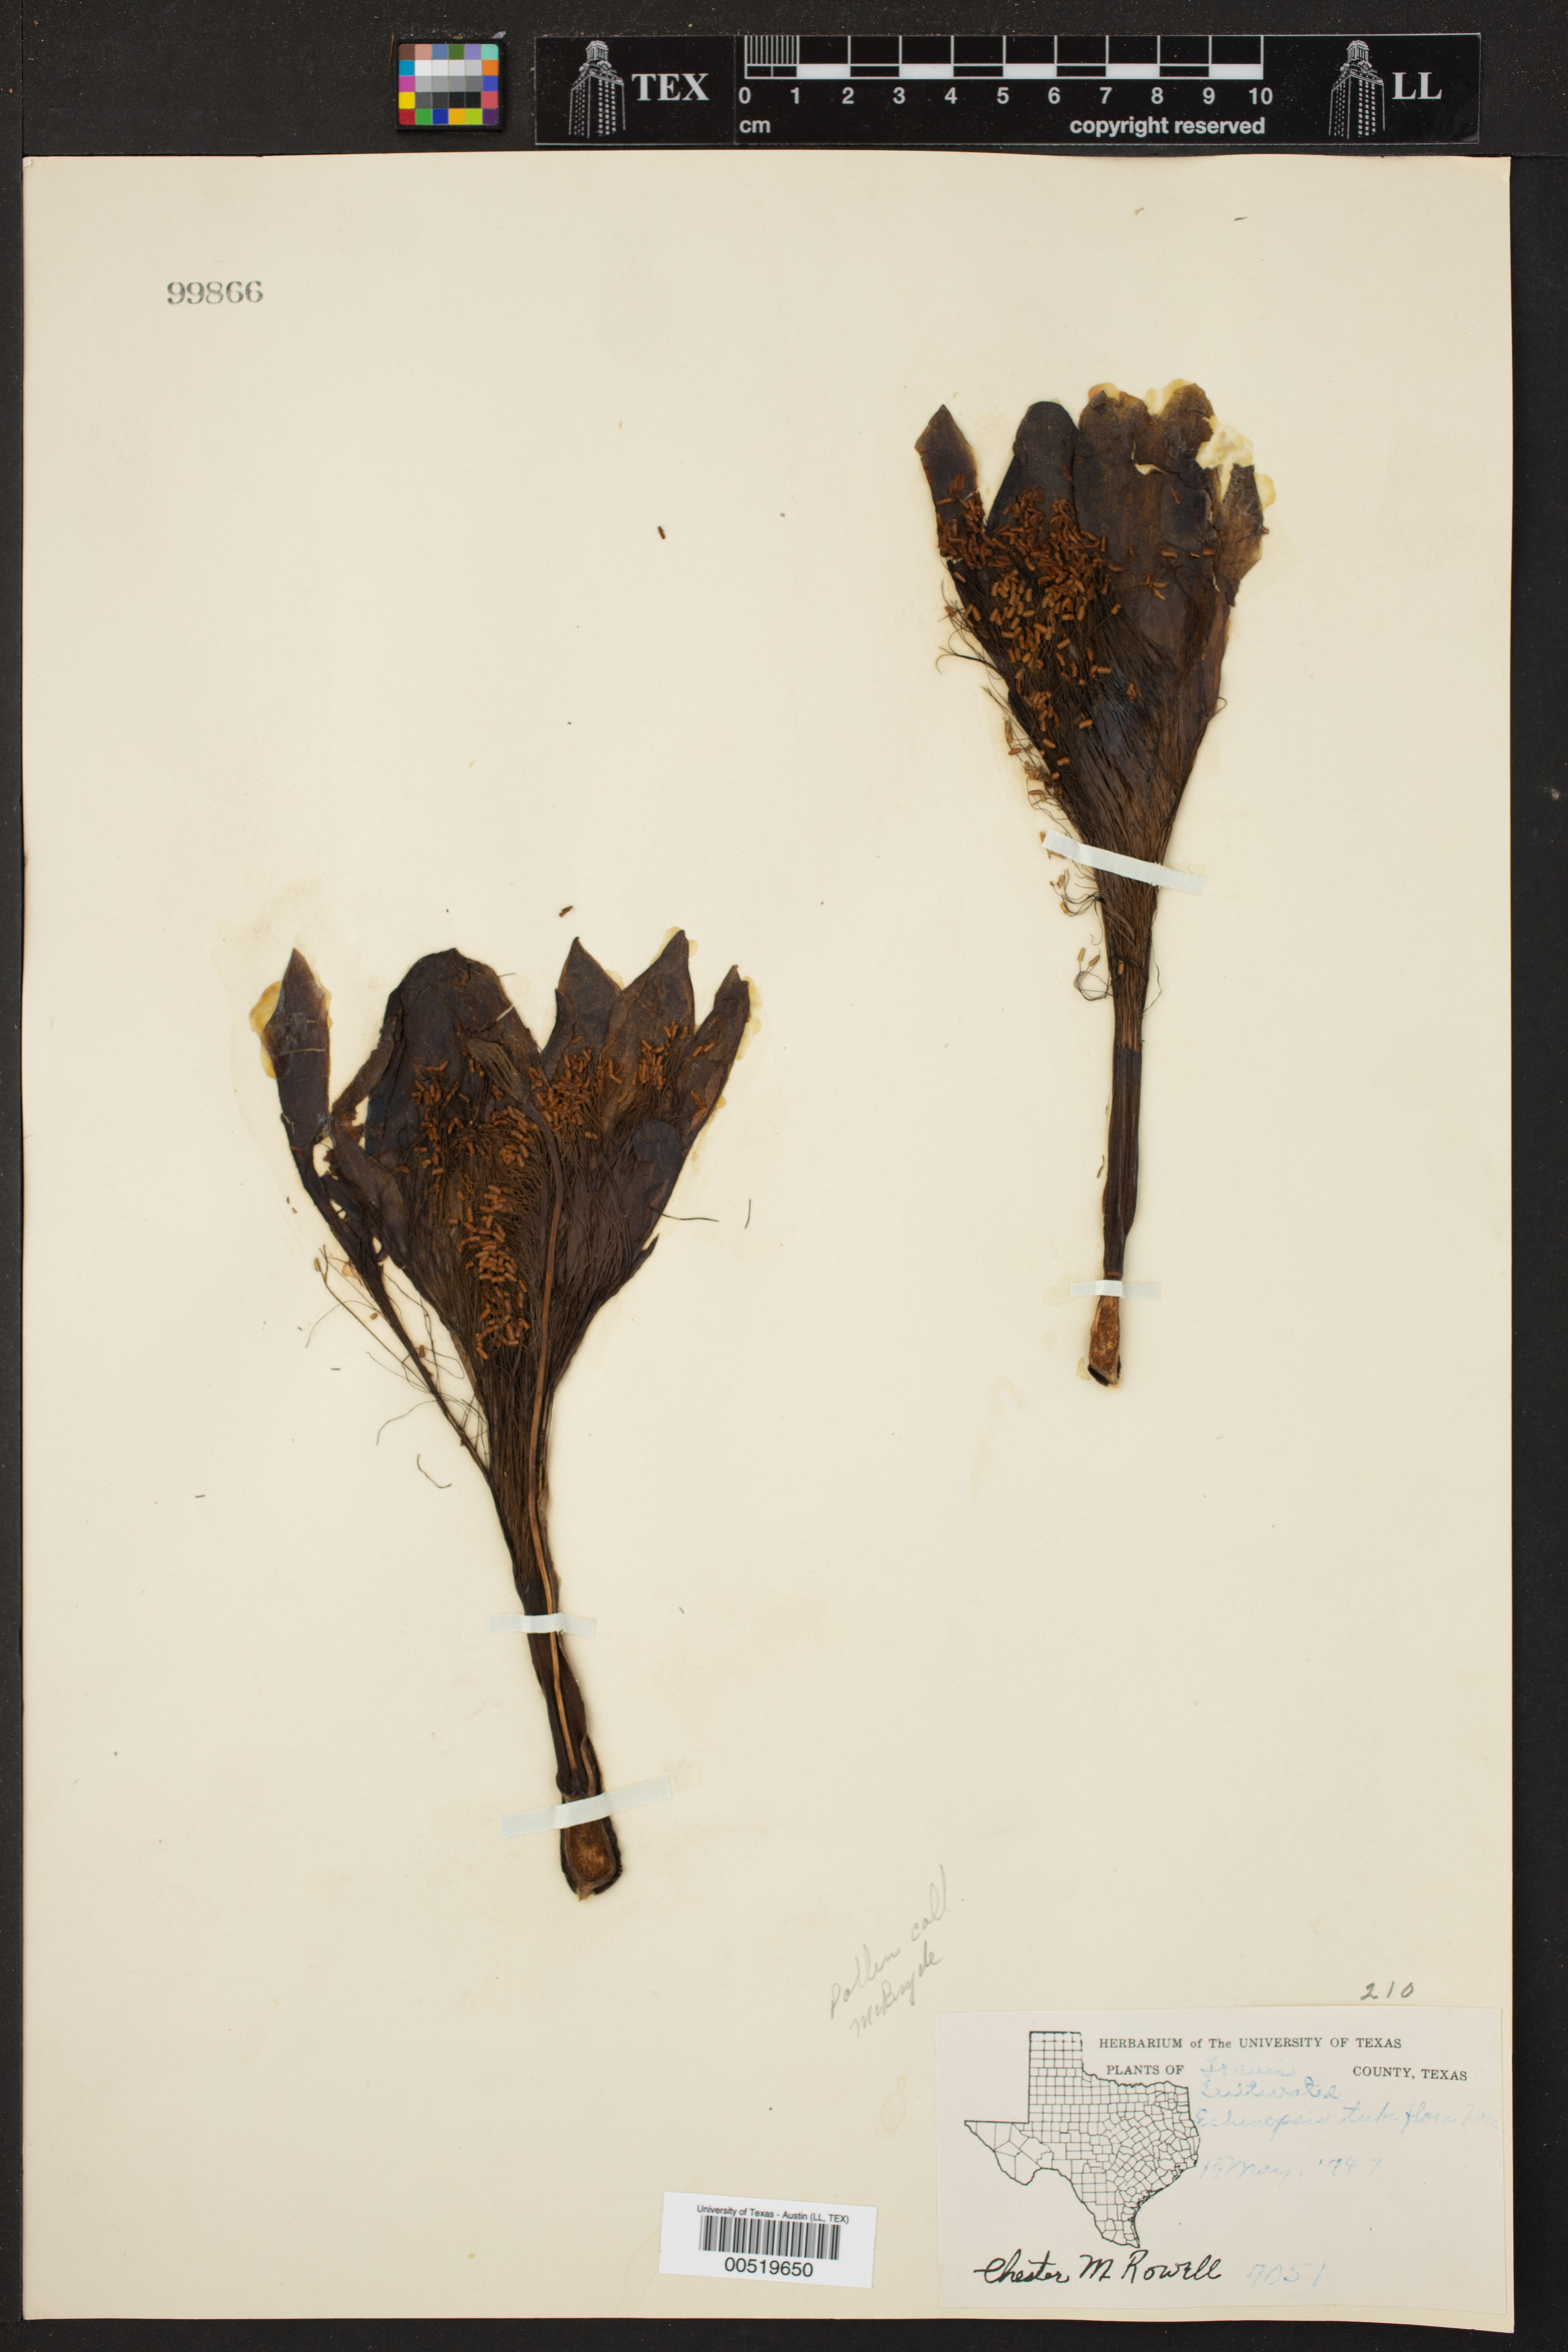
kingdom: Plantae
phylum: Tracheophyta
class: Magnoliopsida
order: Caryophyllales
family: Cactaceae
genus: Echinopsis
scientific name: Echinopsis oxygona
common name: Red easter-lily cactus
